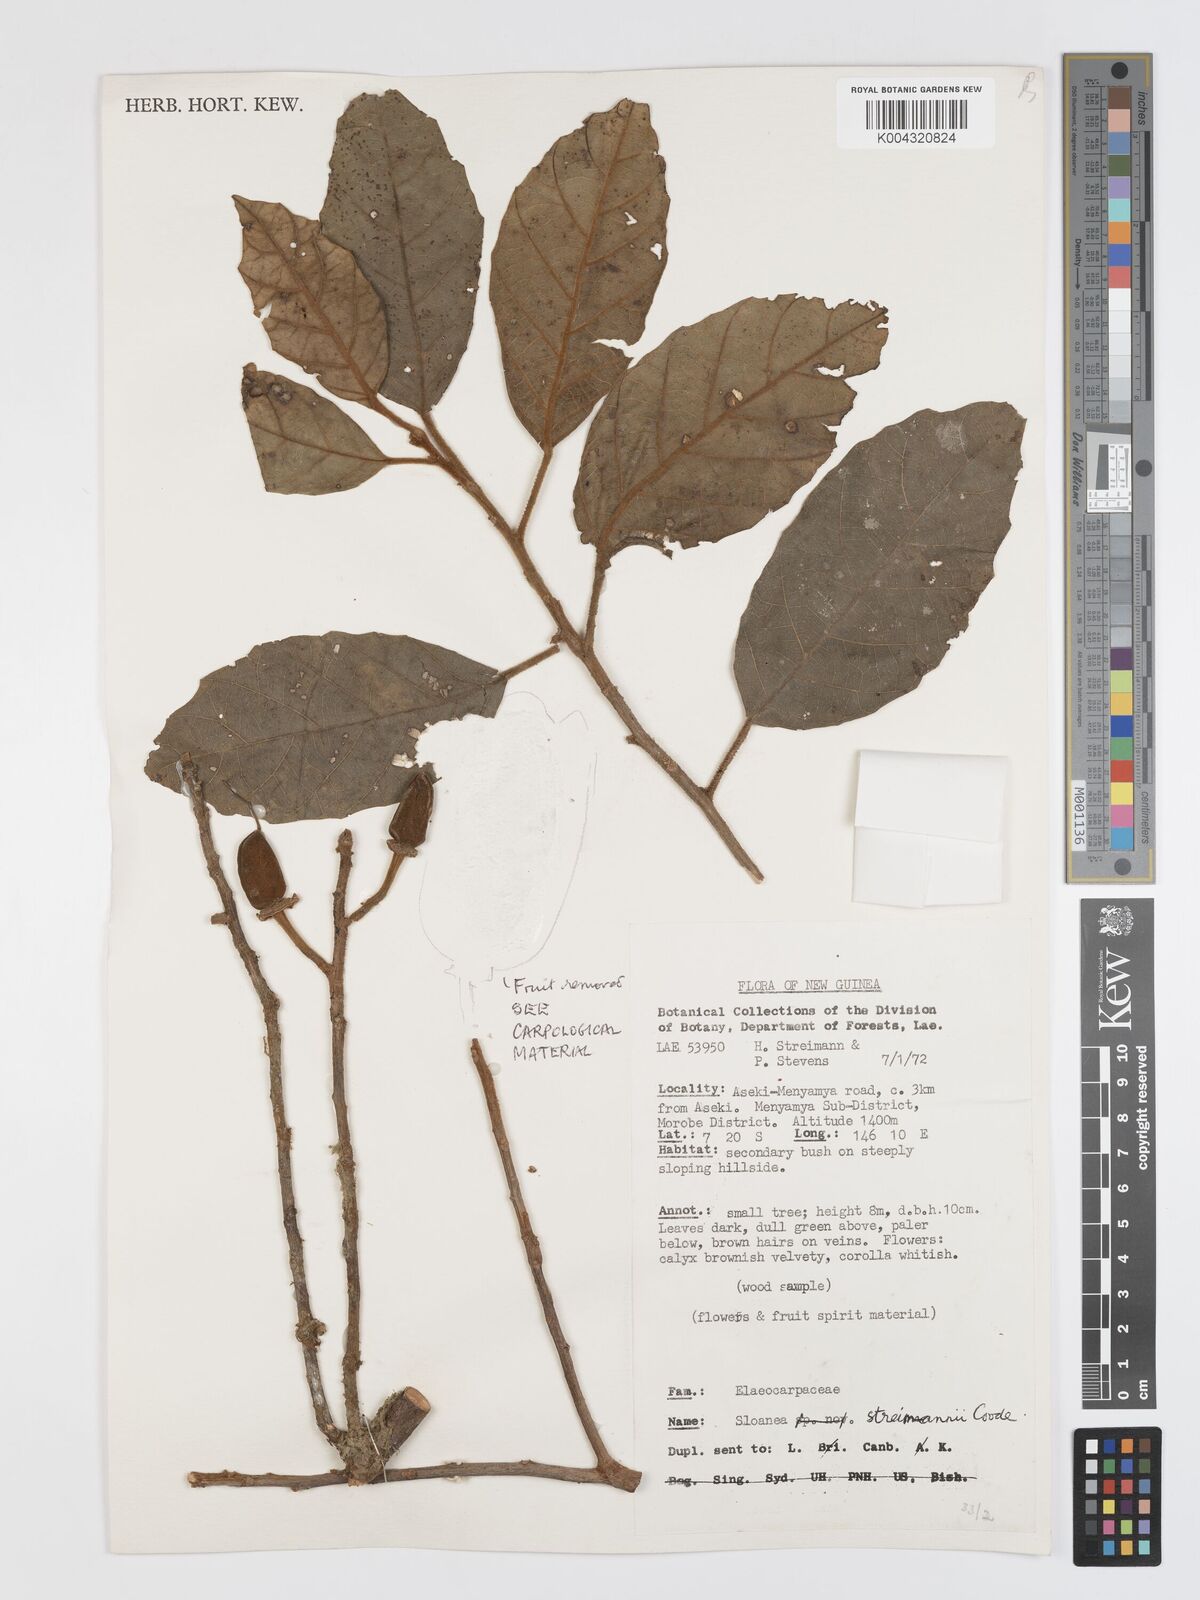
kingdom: Plantae
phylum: Tracheophyta
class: Magnoliopsida
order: Oxalidales
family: Elaeocarpaceae
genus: Sloanea
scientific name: Sloanea streimannii
